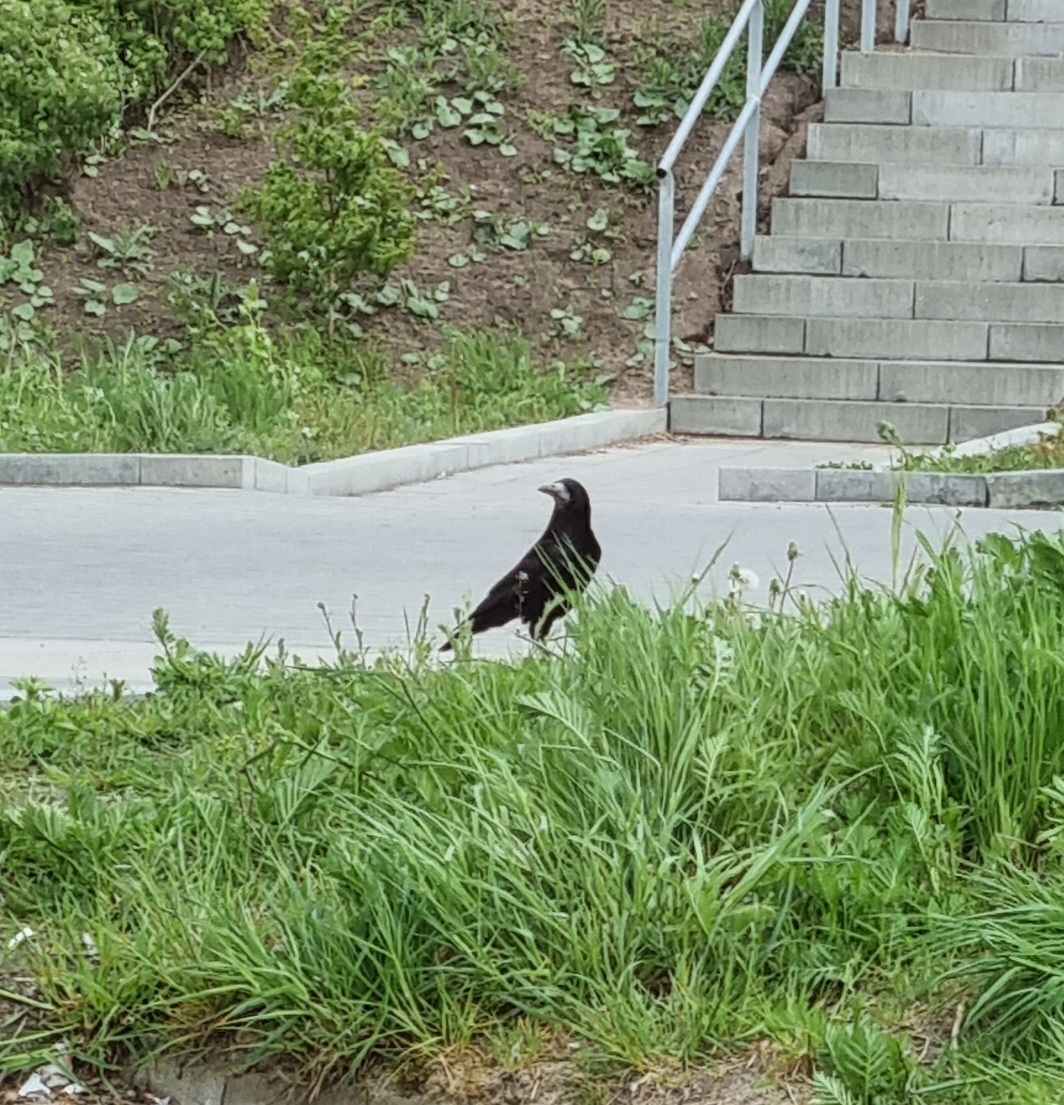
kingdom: Animalia
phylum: Chordata
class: Aves
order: Passeriformes
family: Corvidae
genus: Corvus
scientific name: Corvus frugilegus
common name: Råge
